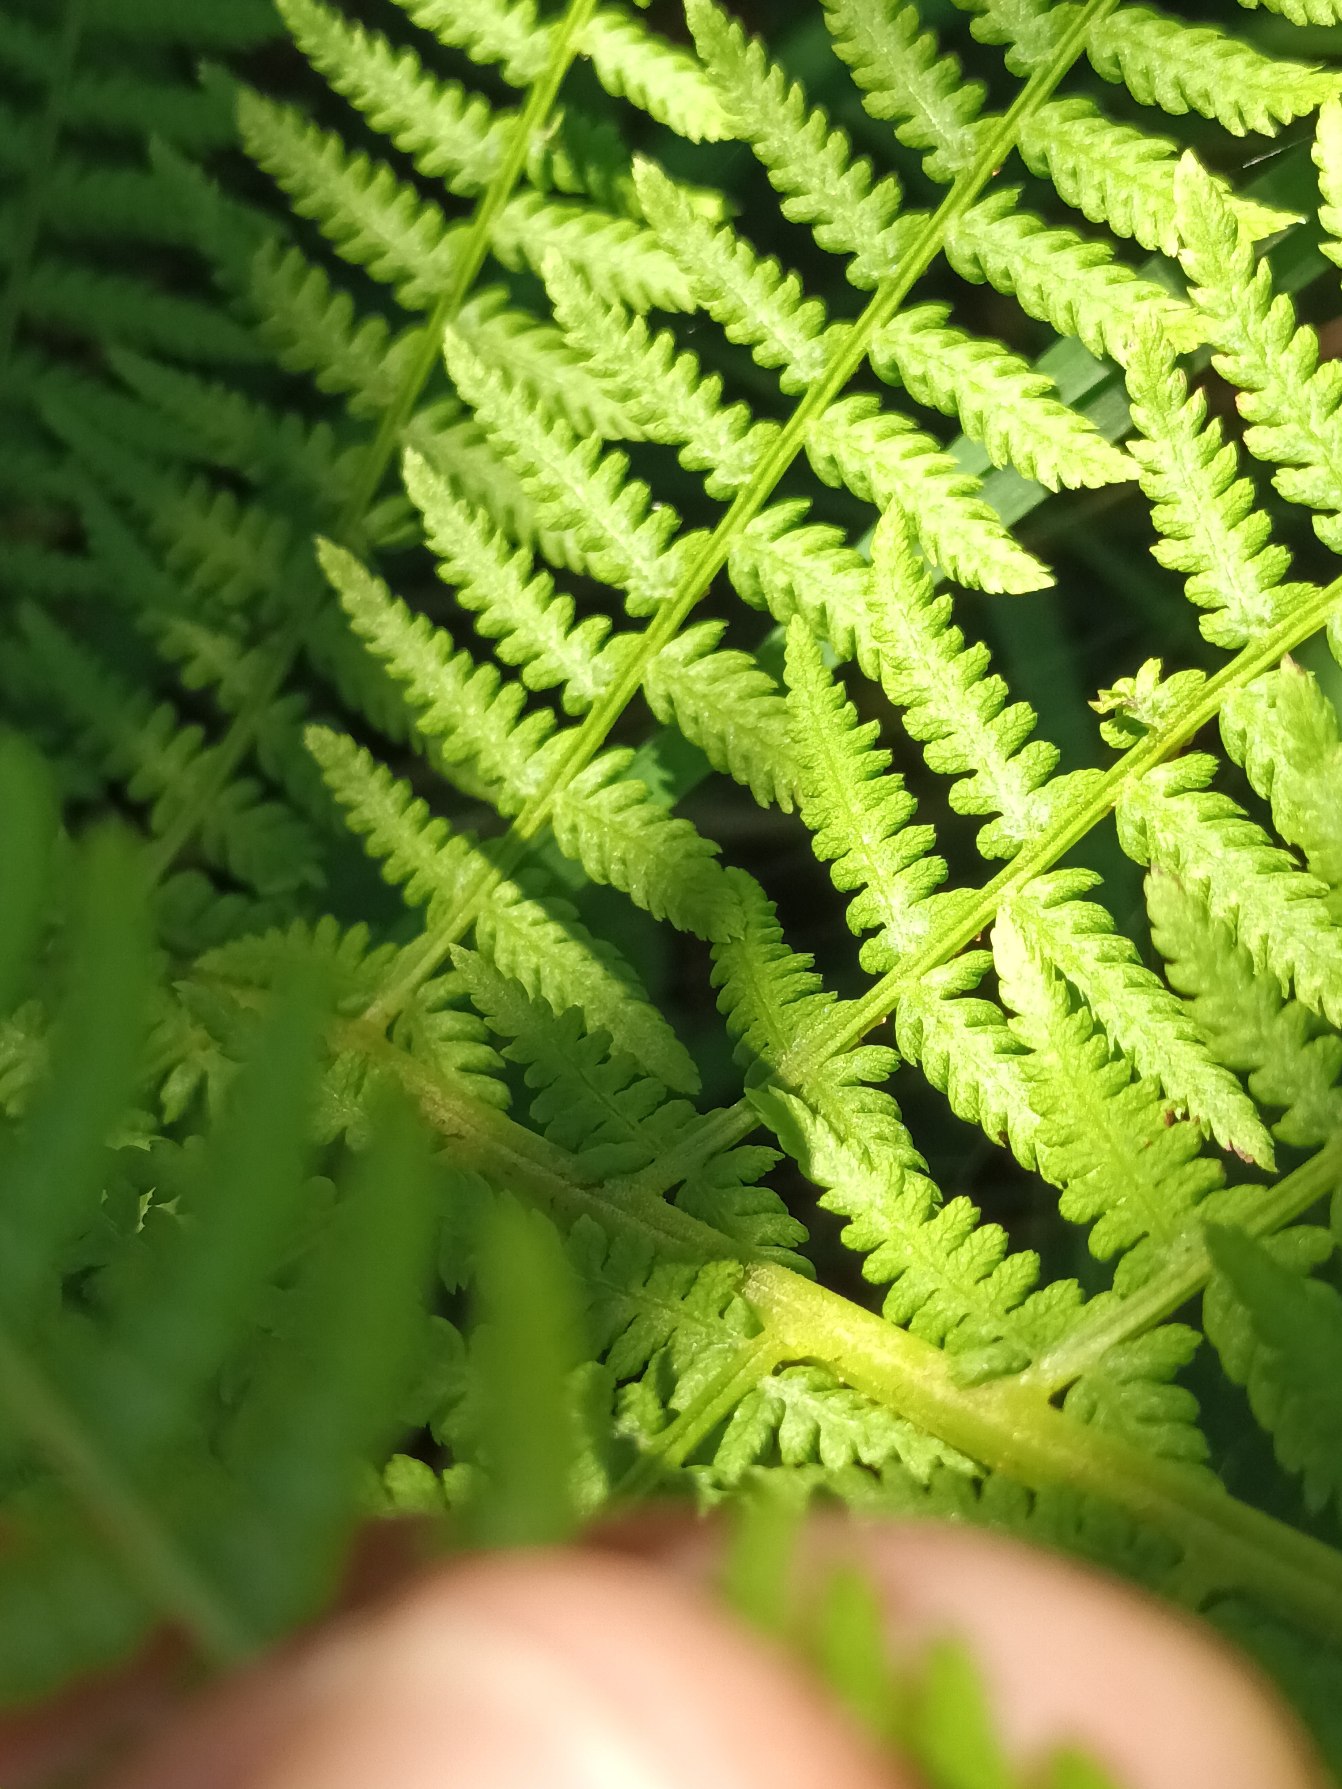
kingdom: Plantae
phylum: Tracheophyta
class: Polypodiopsida
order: Polypodiales
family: Athyriaceae
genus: Athyrium
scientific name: Athyrium filix-femina
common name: Fjerbregne
